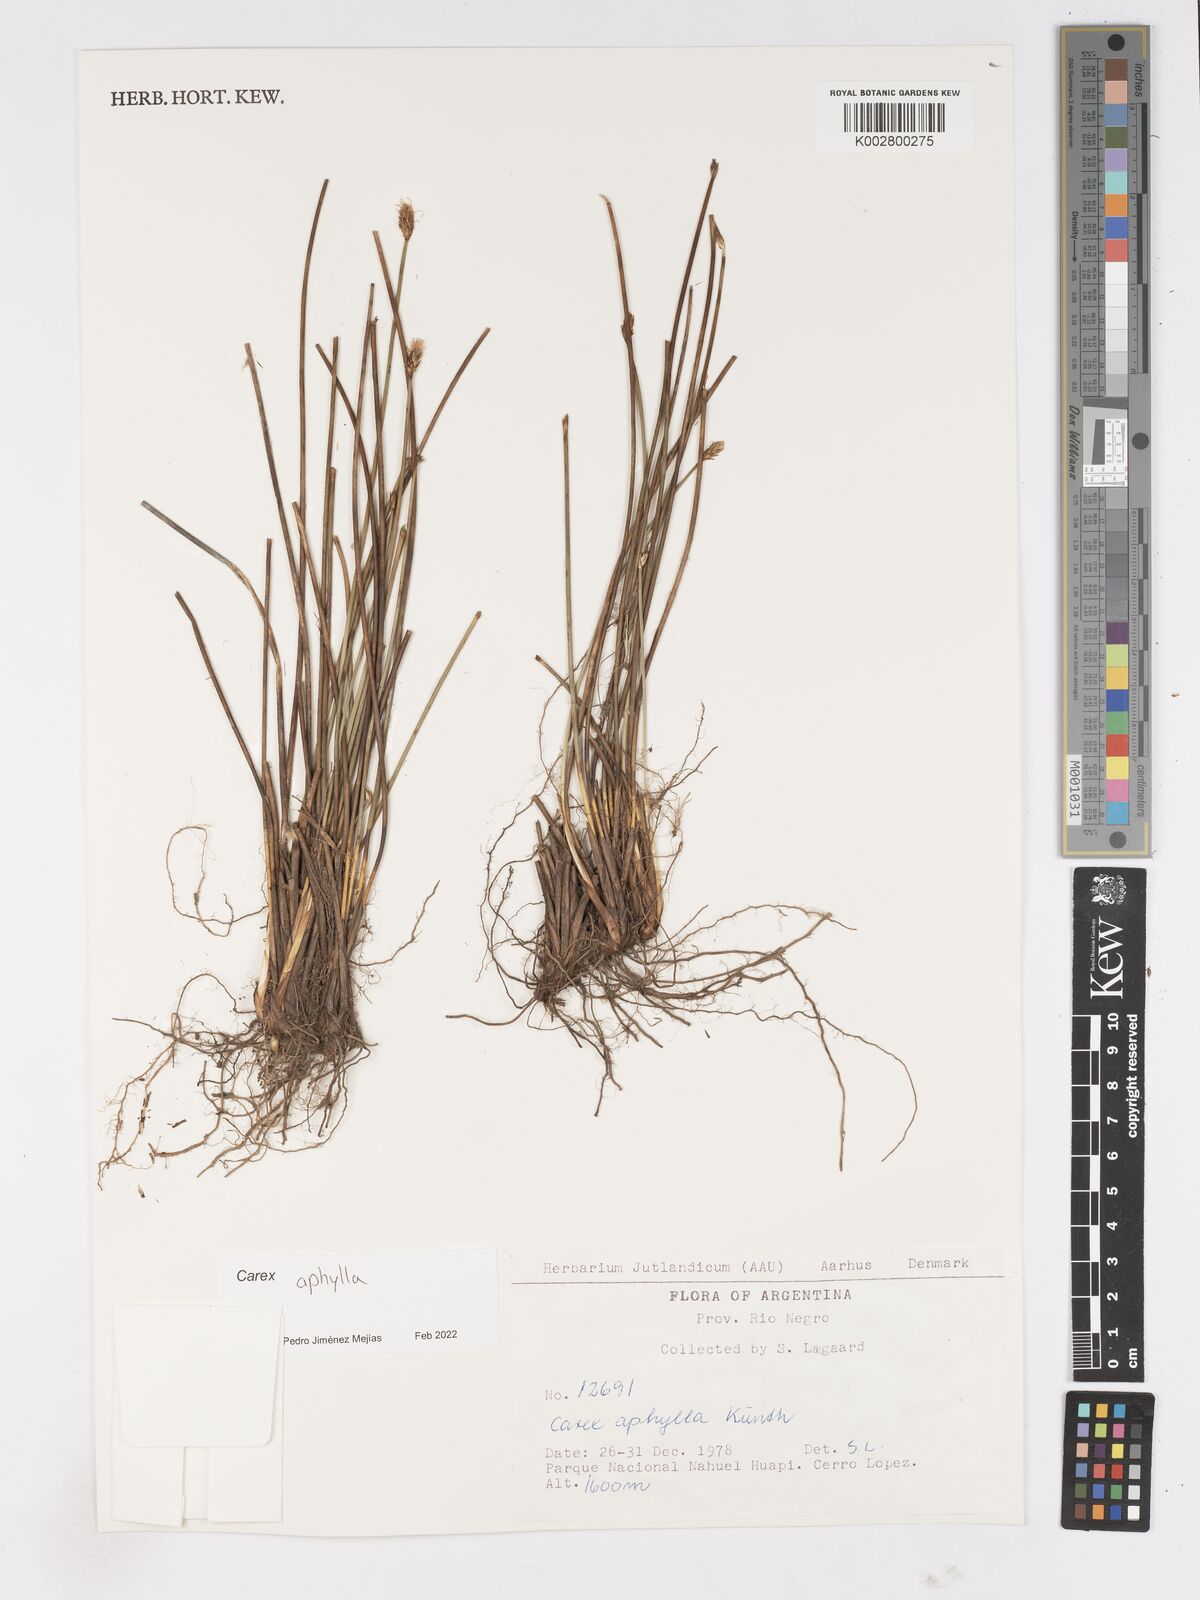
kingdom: Plantae
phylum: Tracheophyta
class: Liliopsida
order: Poales
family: Cyperaceae
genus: Carex
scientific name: Carex aphylla
